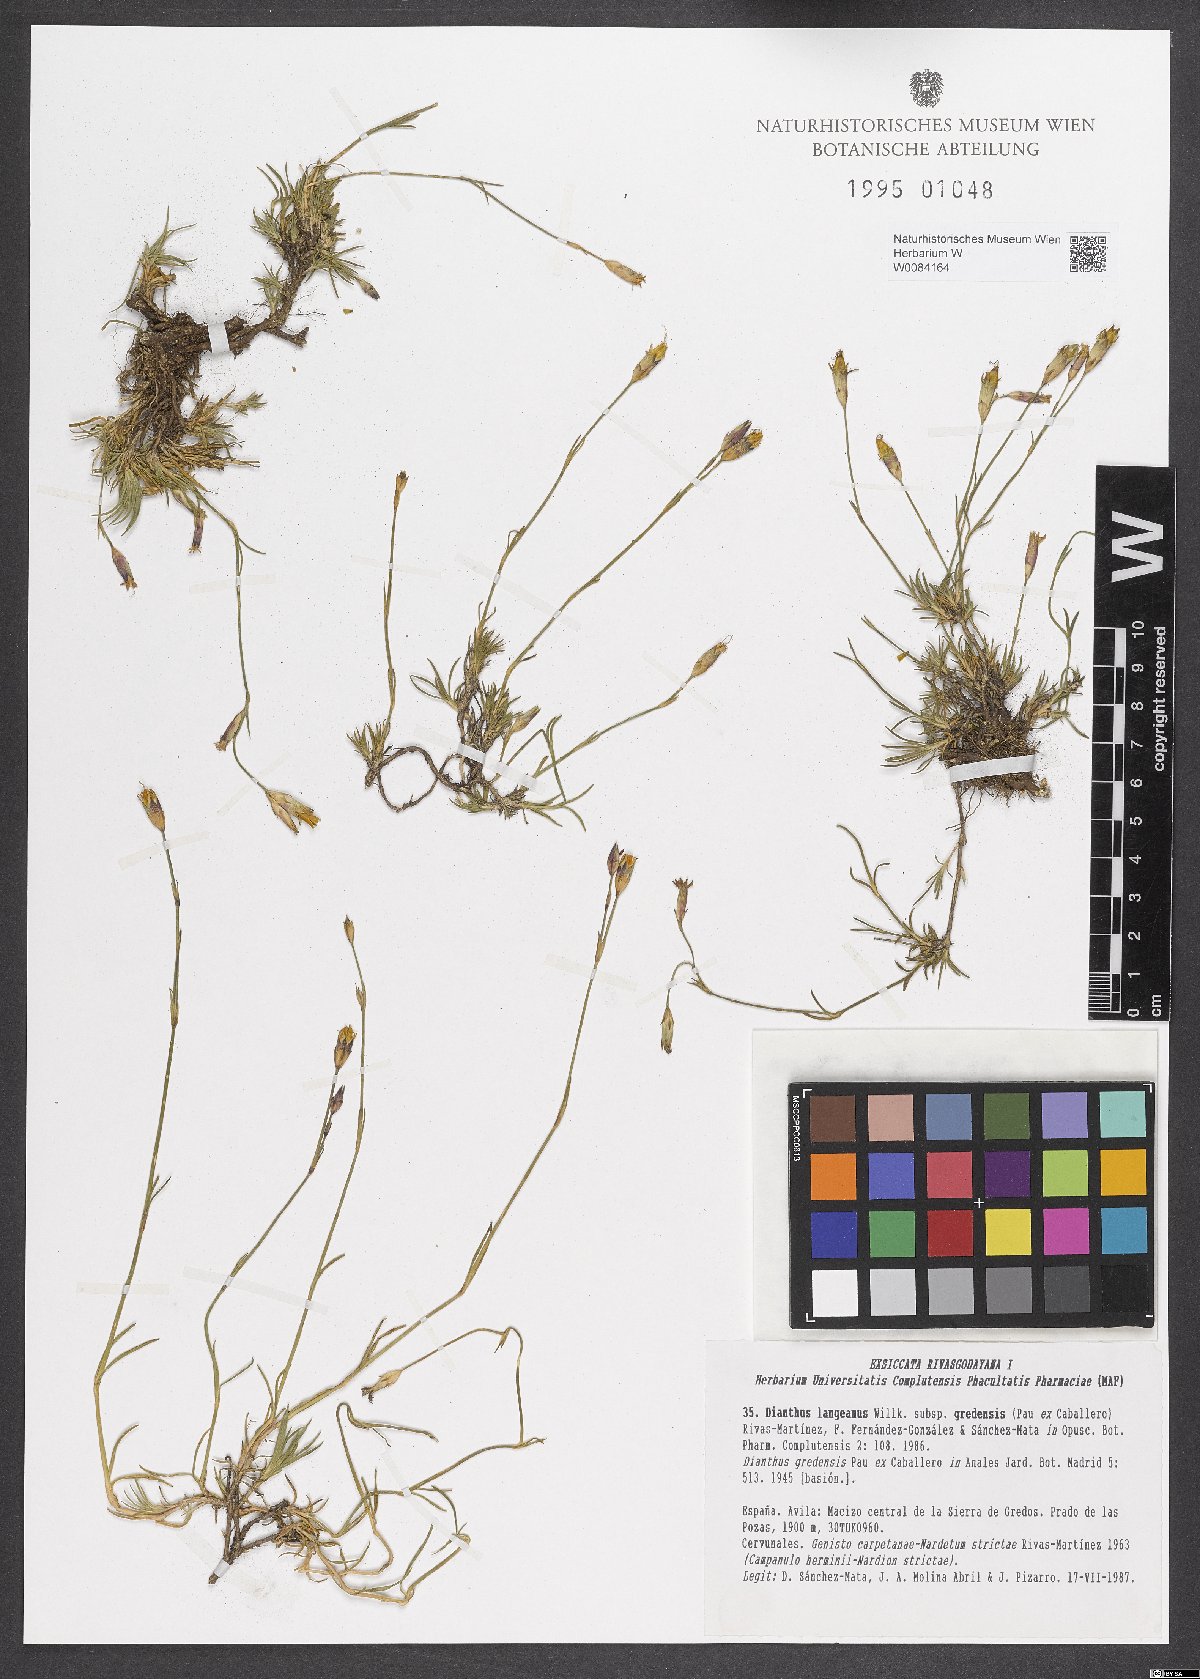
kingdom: Plantae
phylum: Tracheophyta
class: Magnoliopsida
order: Caryophyllales
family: Caryophyllaceae
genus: Dianthus
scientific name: Dianthus langeanus
